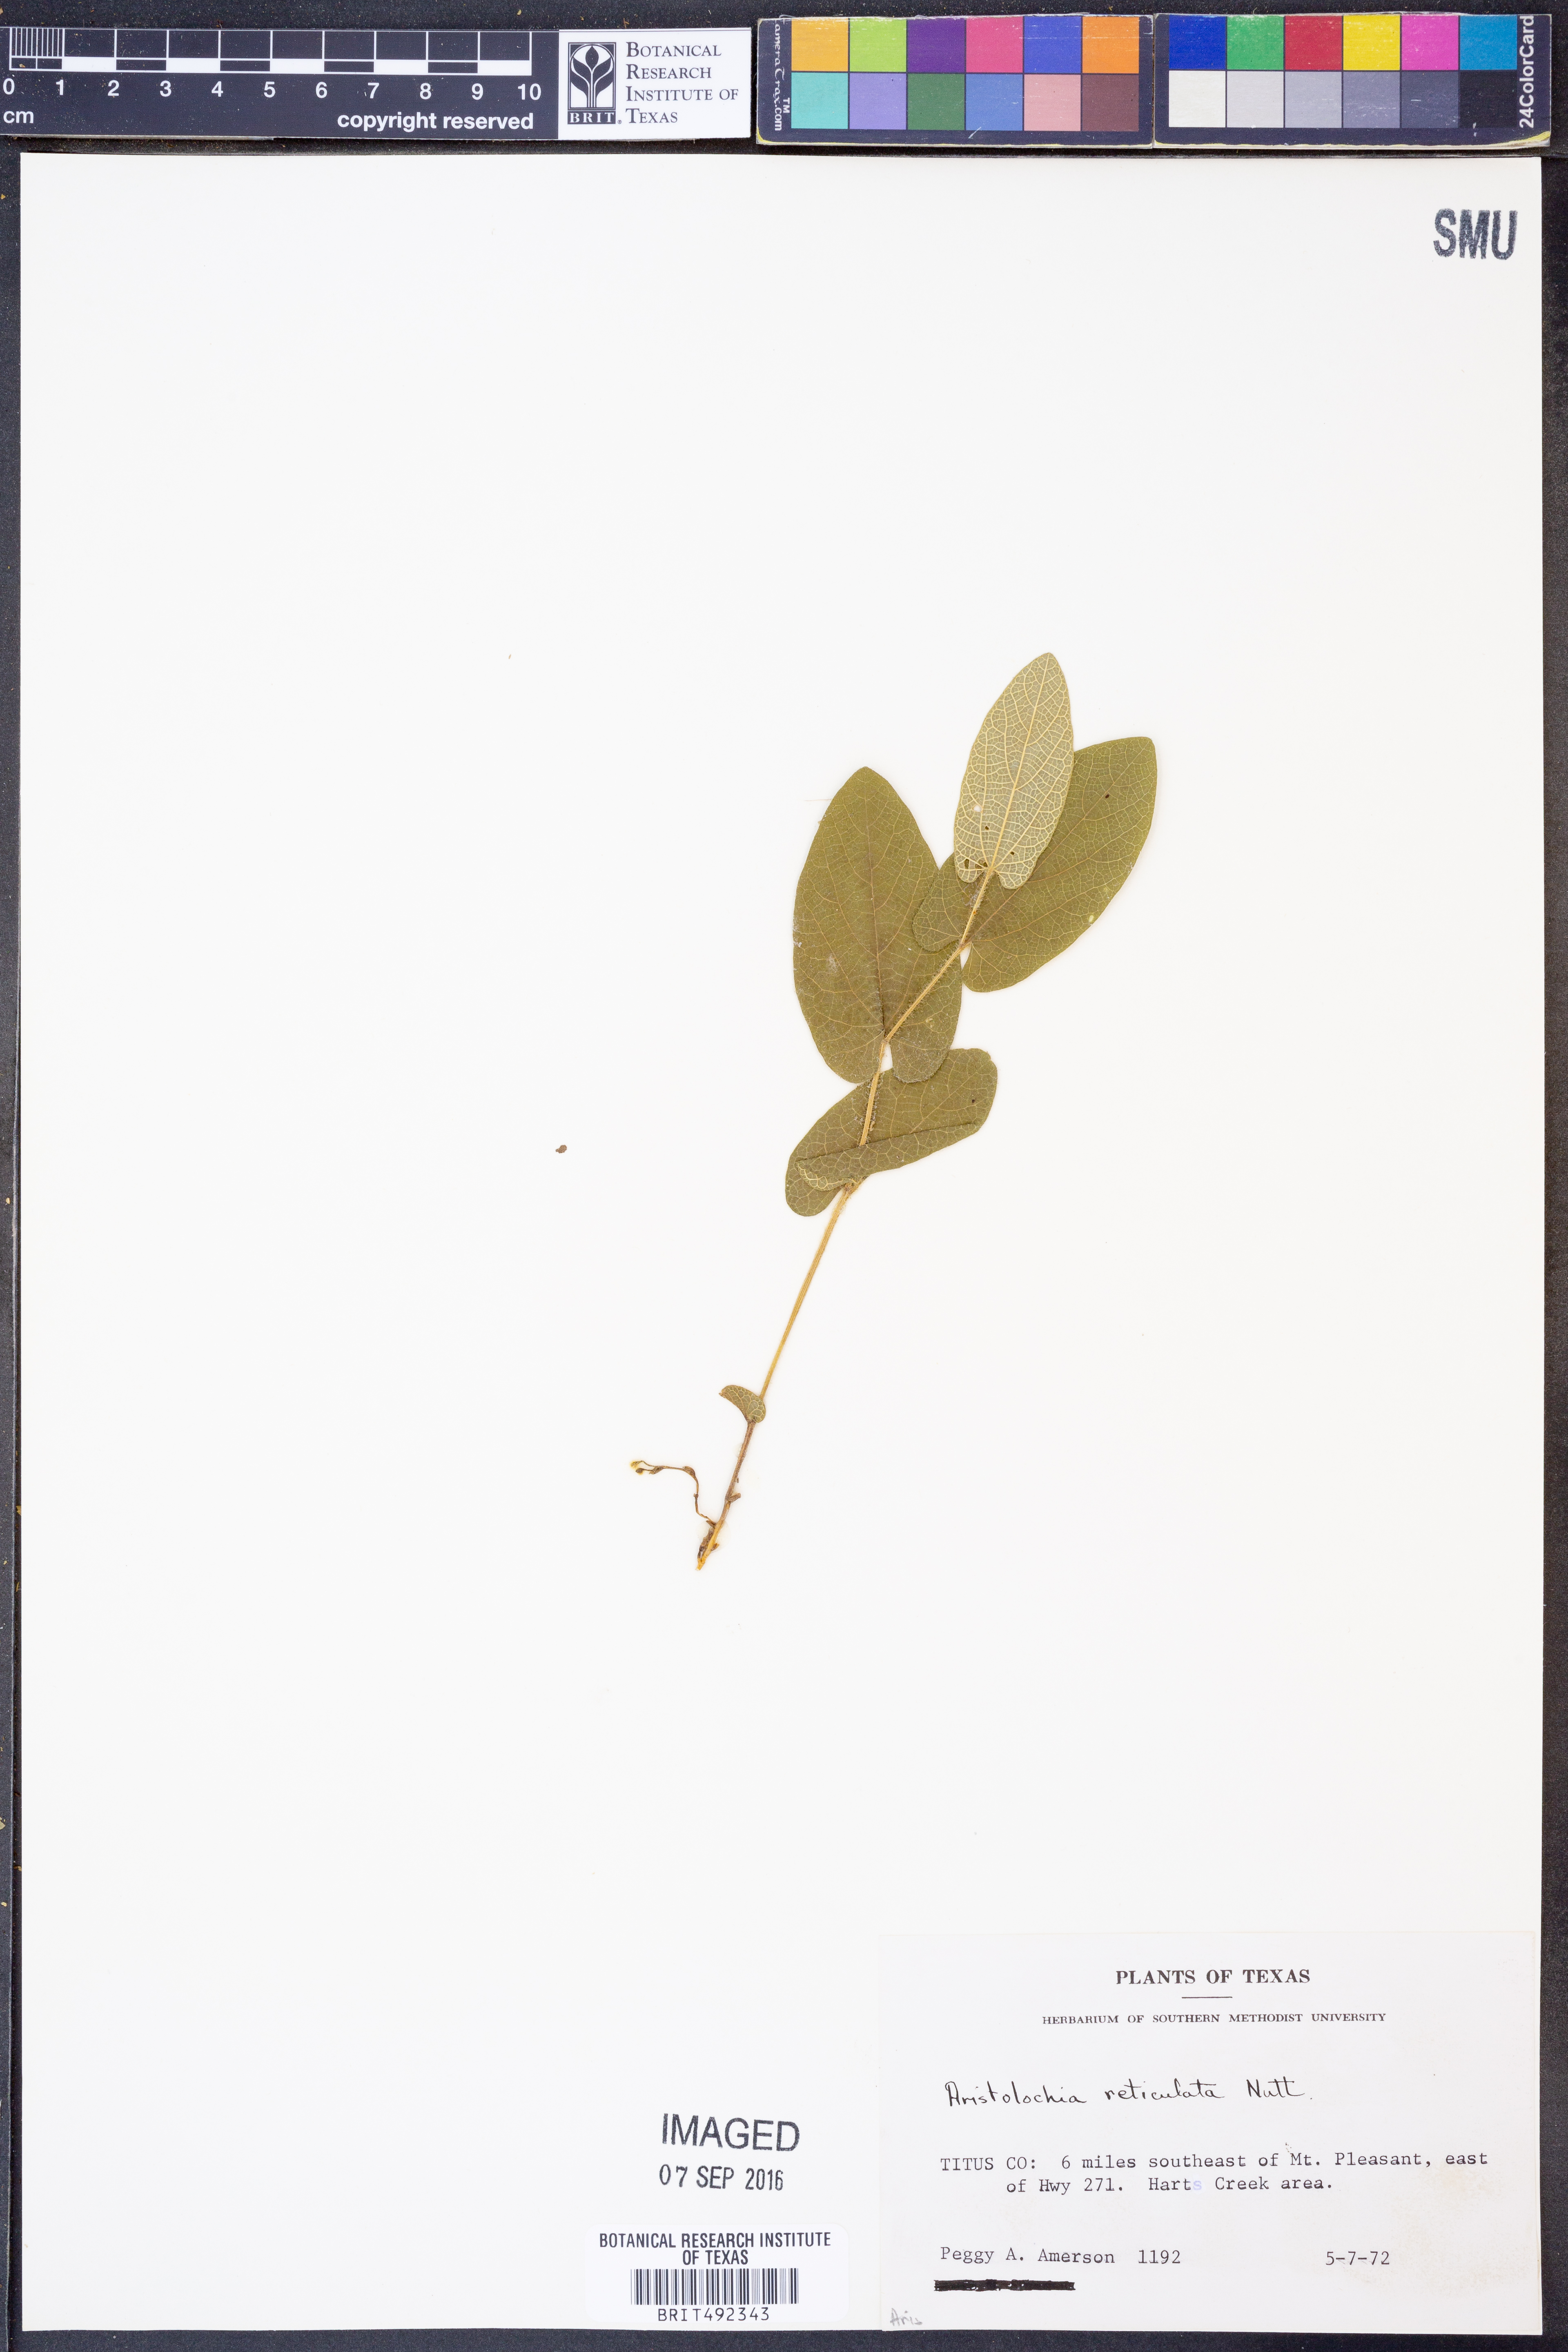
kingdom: Plantae
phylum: Tracheophyta
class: Magnoliopsida
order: Piperales
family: Aristolochiaceae
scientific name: Aristolochiaceae
